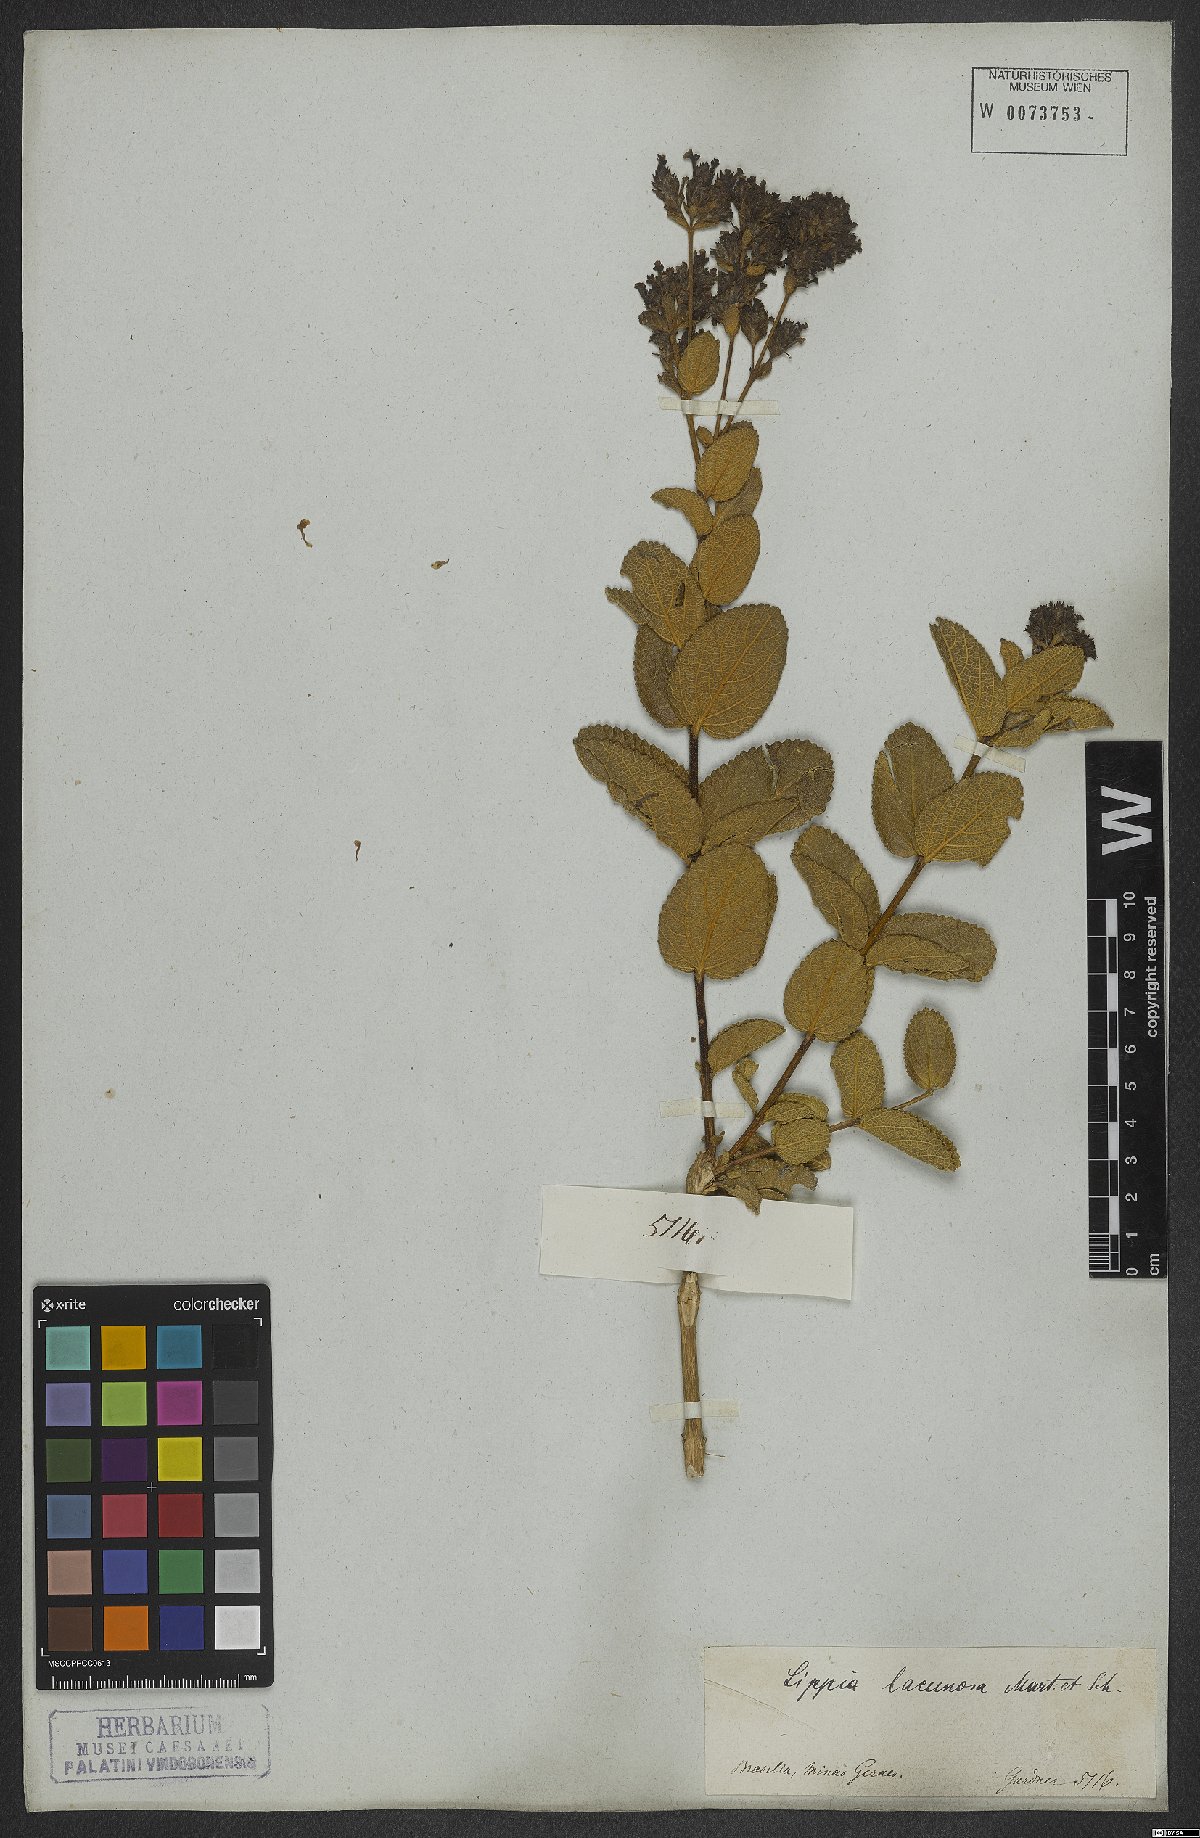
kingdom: Plantae
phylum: Tracheophyta
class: Magnoliopsida
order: Lamiales
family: Verbenaceae
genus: Lippia
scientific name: Lippia lacunosa
